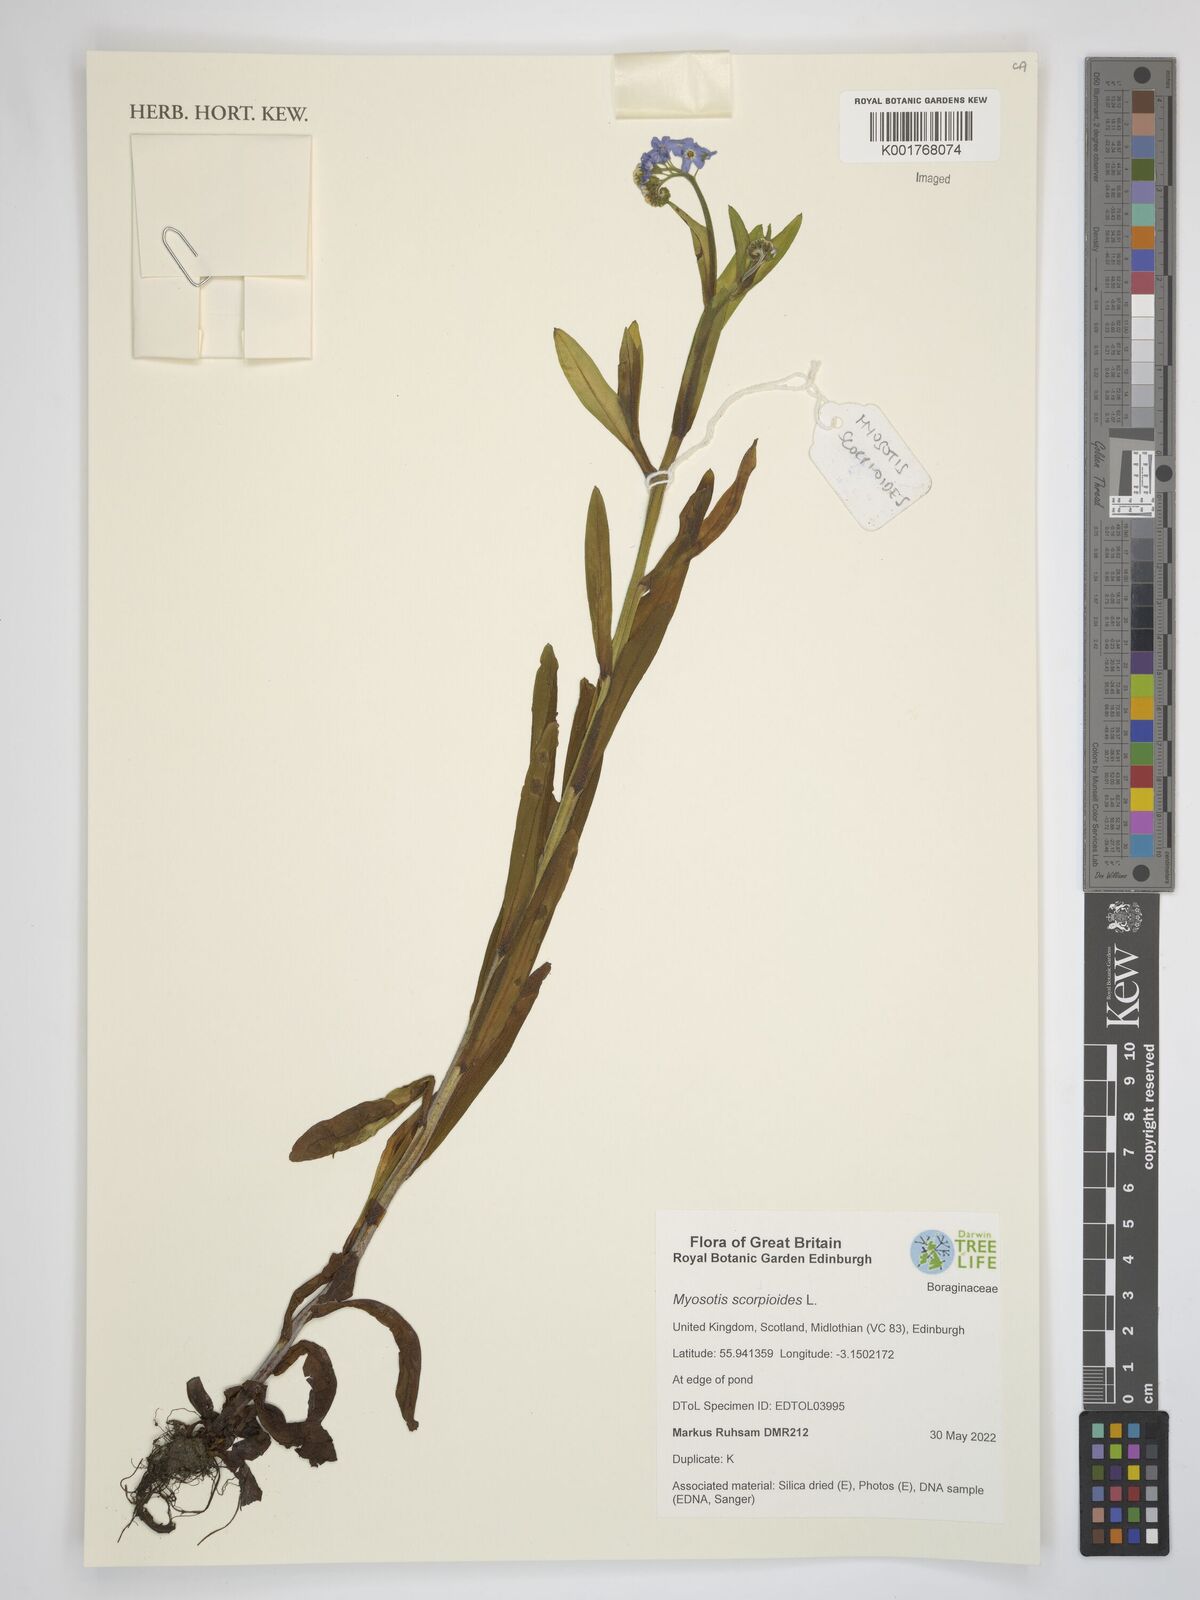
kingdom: Plantae
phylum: Tracheophyta
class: Magnoliopsida
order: Boraginales
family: Boraginaceae
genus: Myosotis
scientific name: Myosotis scorpioides
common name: Water forget-me-not
